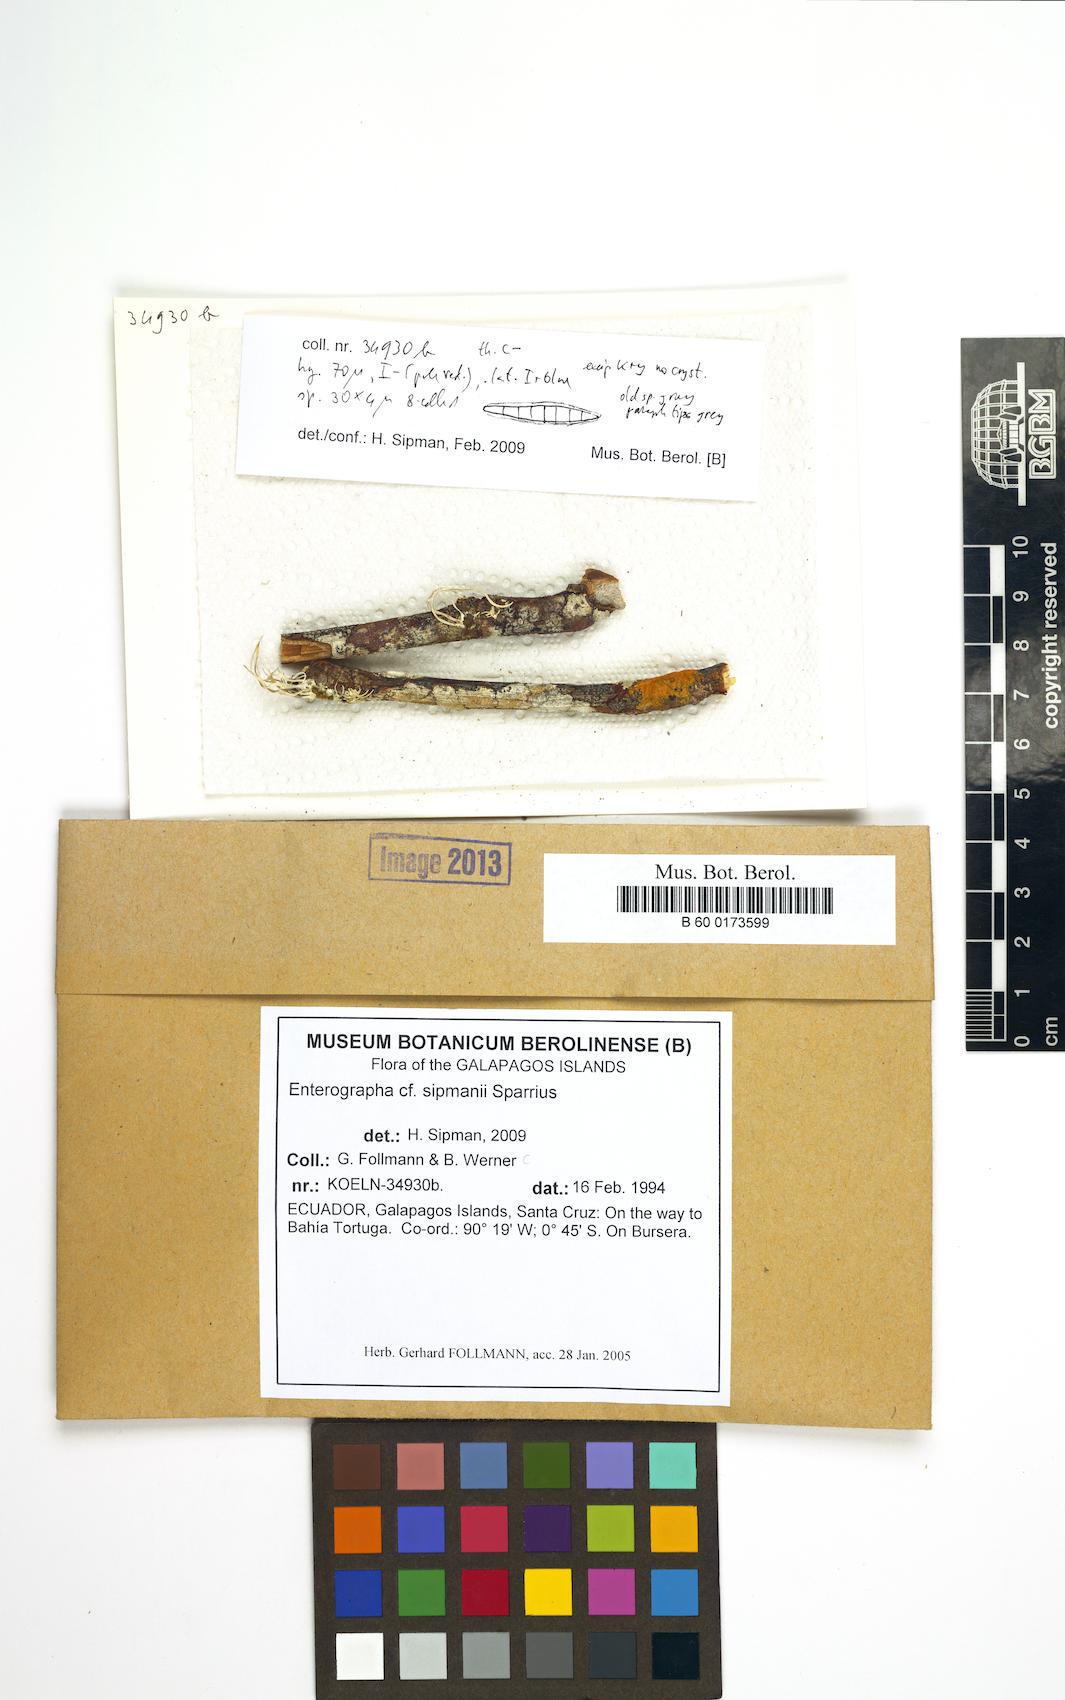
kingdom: Fungi
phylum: Ascomycota
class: Arthoniomycetes
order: Arthoniales
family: Roccellaceae
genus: Enterographa
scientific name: Enterographa sipmanii
